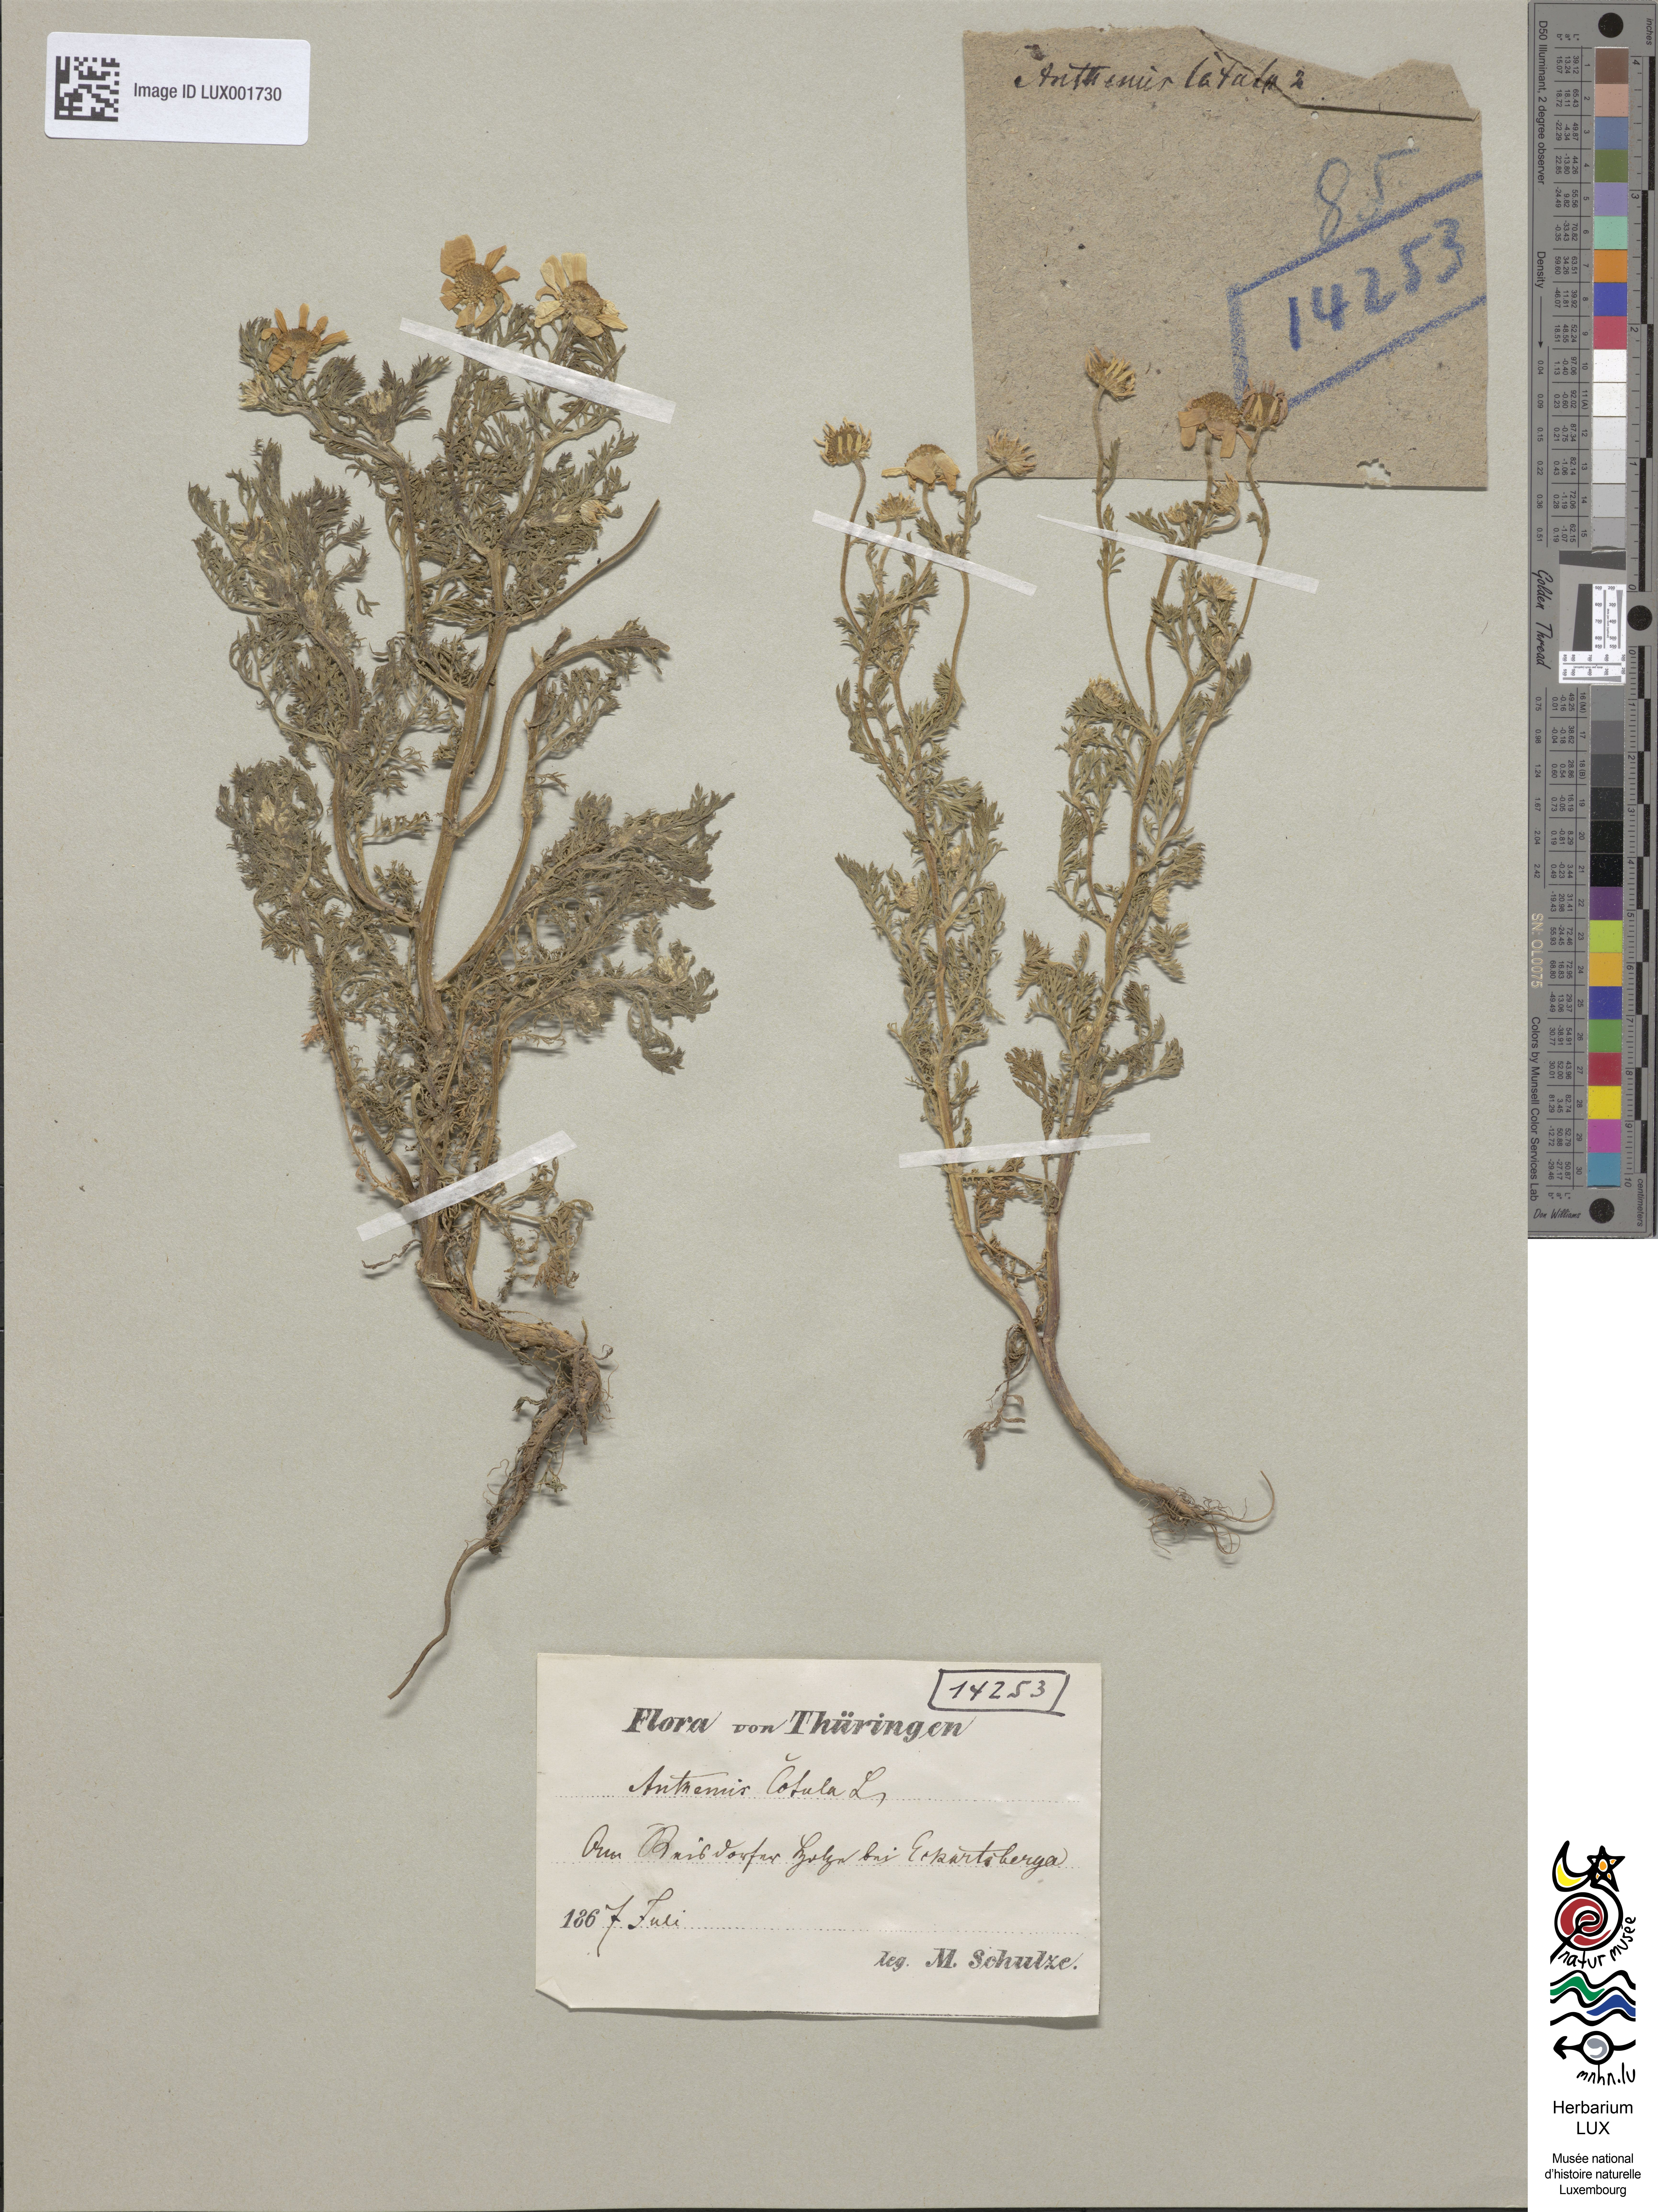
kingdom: Plantae
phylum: Tracheophyta
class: Magnoliopsida
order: Asterales
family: Asteraceae
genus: Anthemis
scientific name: Anthemis cotula
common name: Stinking chamomile
